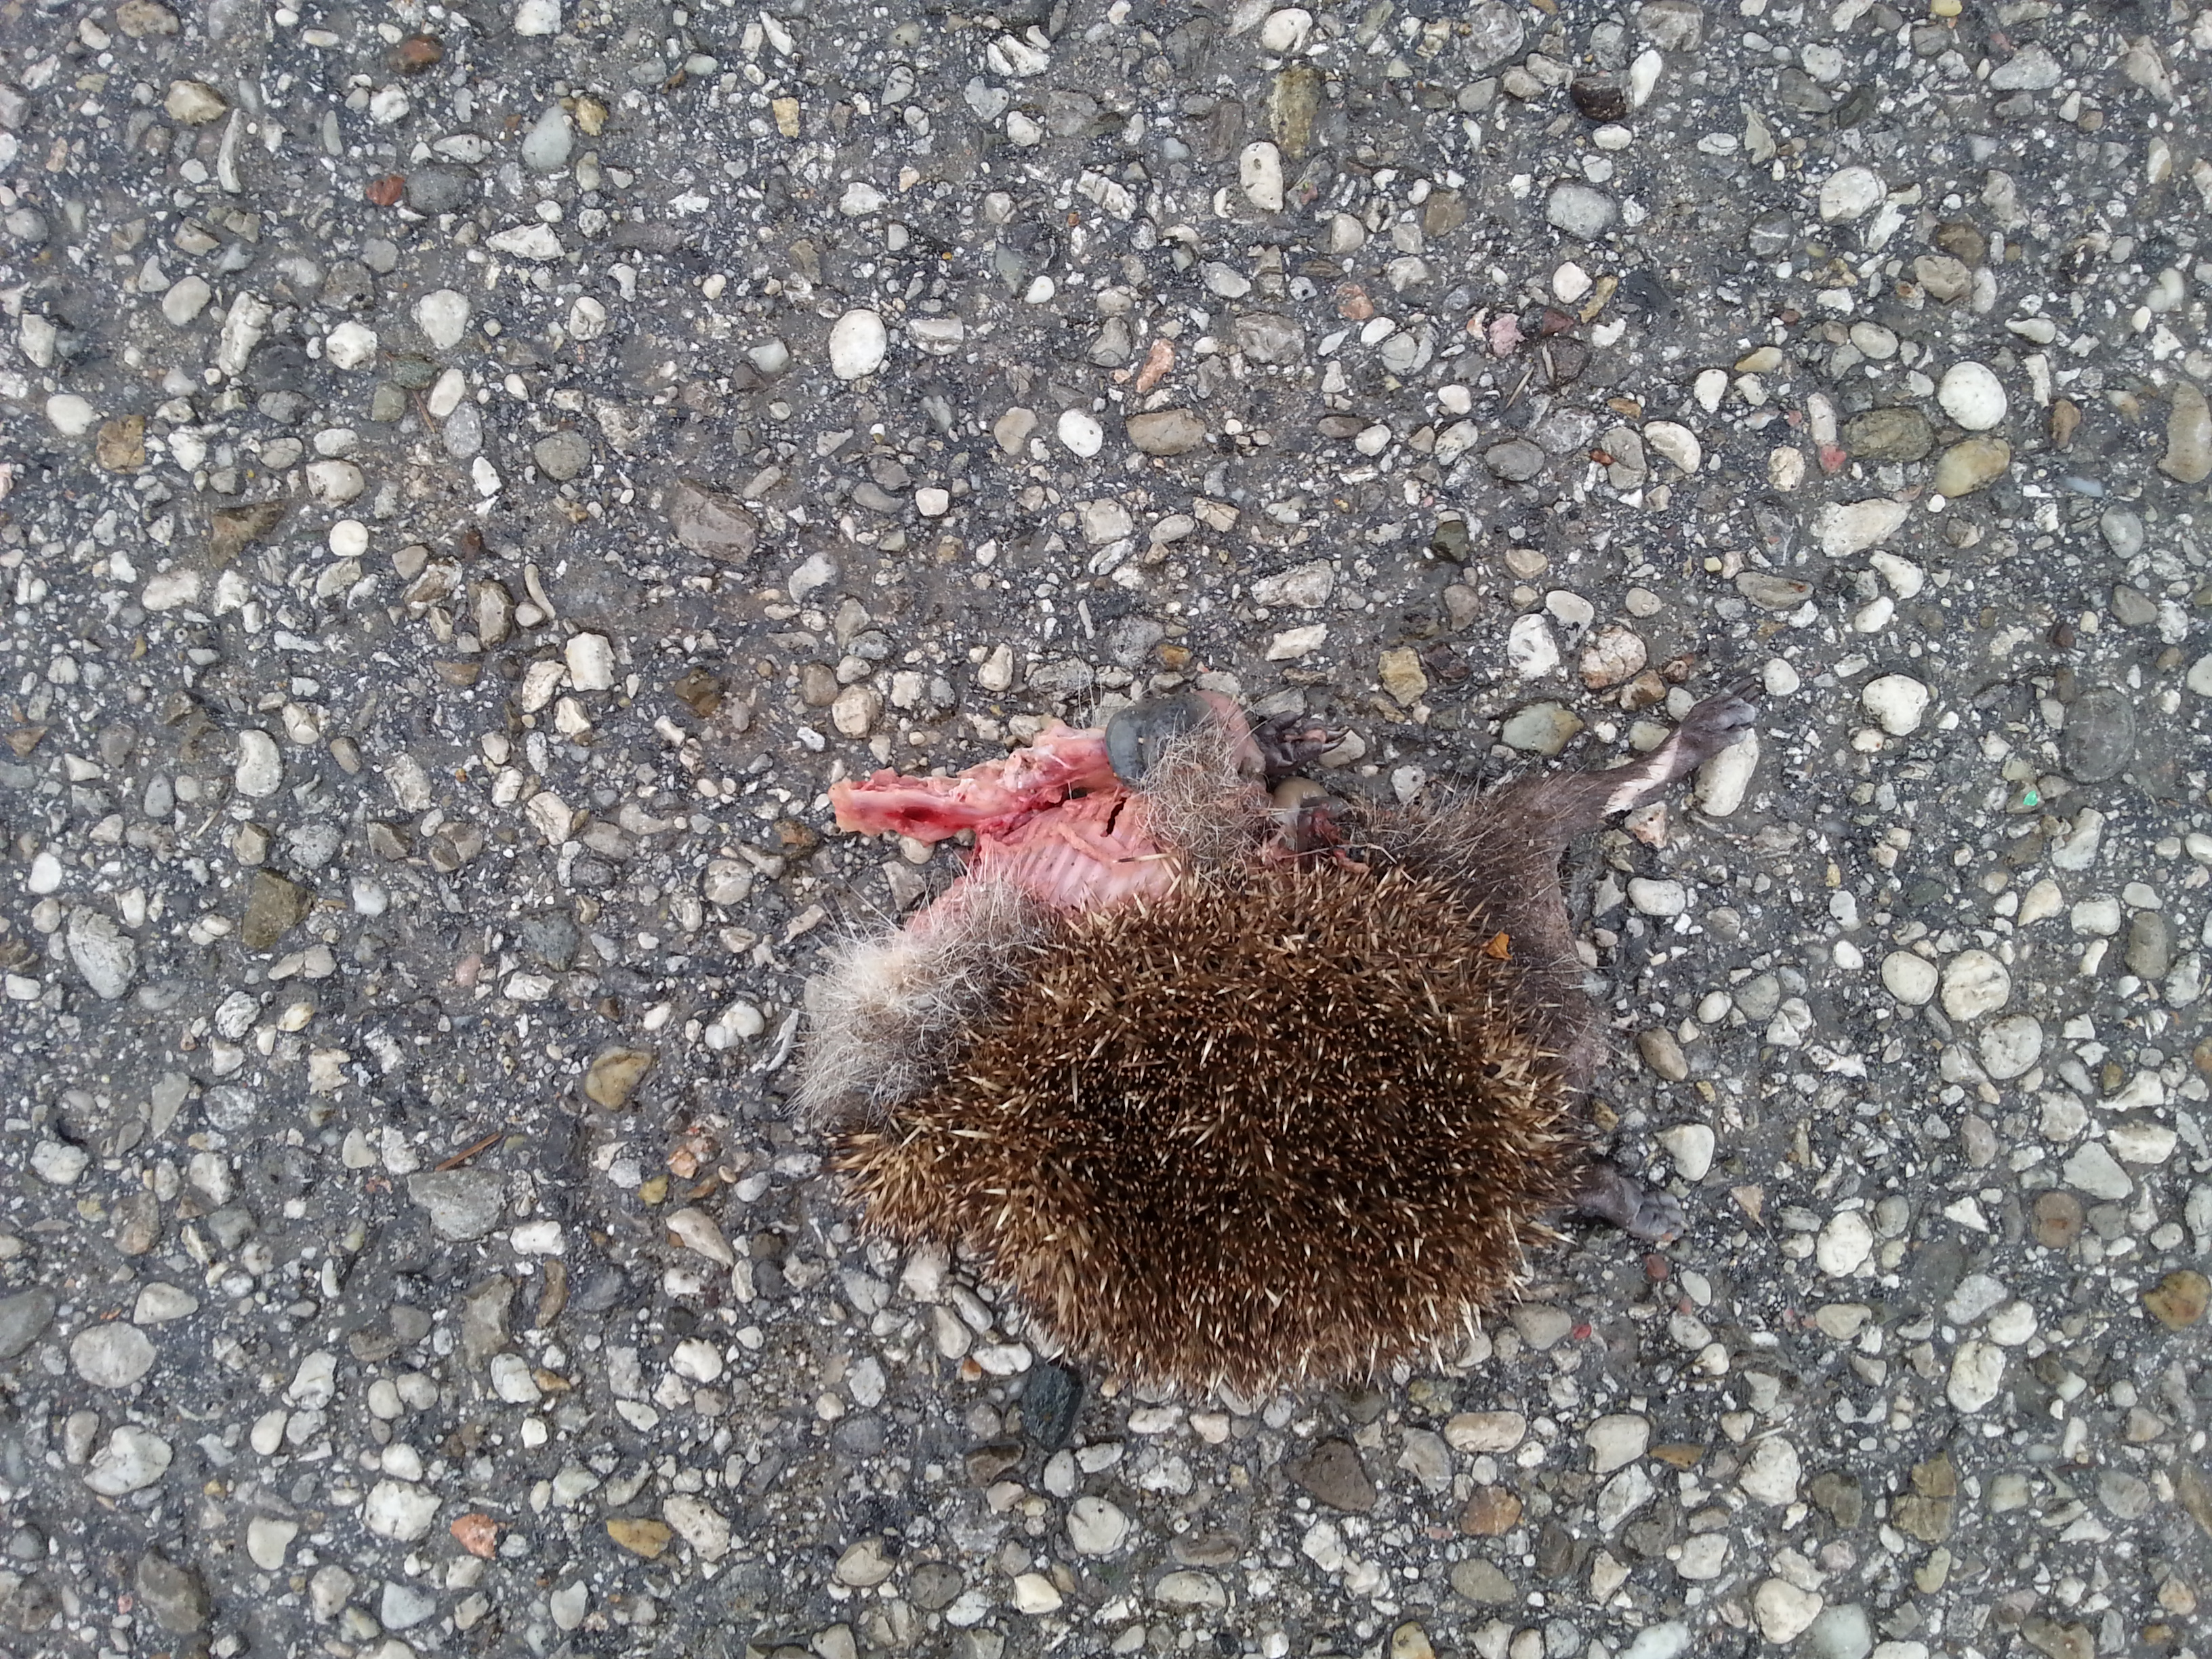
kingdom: Animalia
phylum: Chordata
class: Mammalia
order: Erinaceomorpha
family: Erinaceidae
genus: Erinaceus
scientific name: Erinaceus
